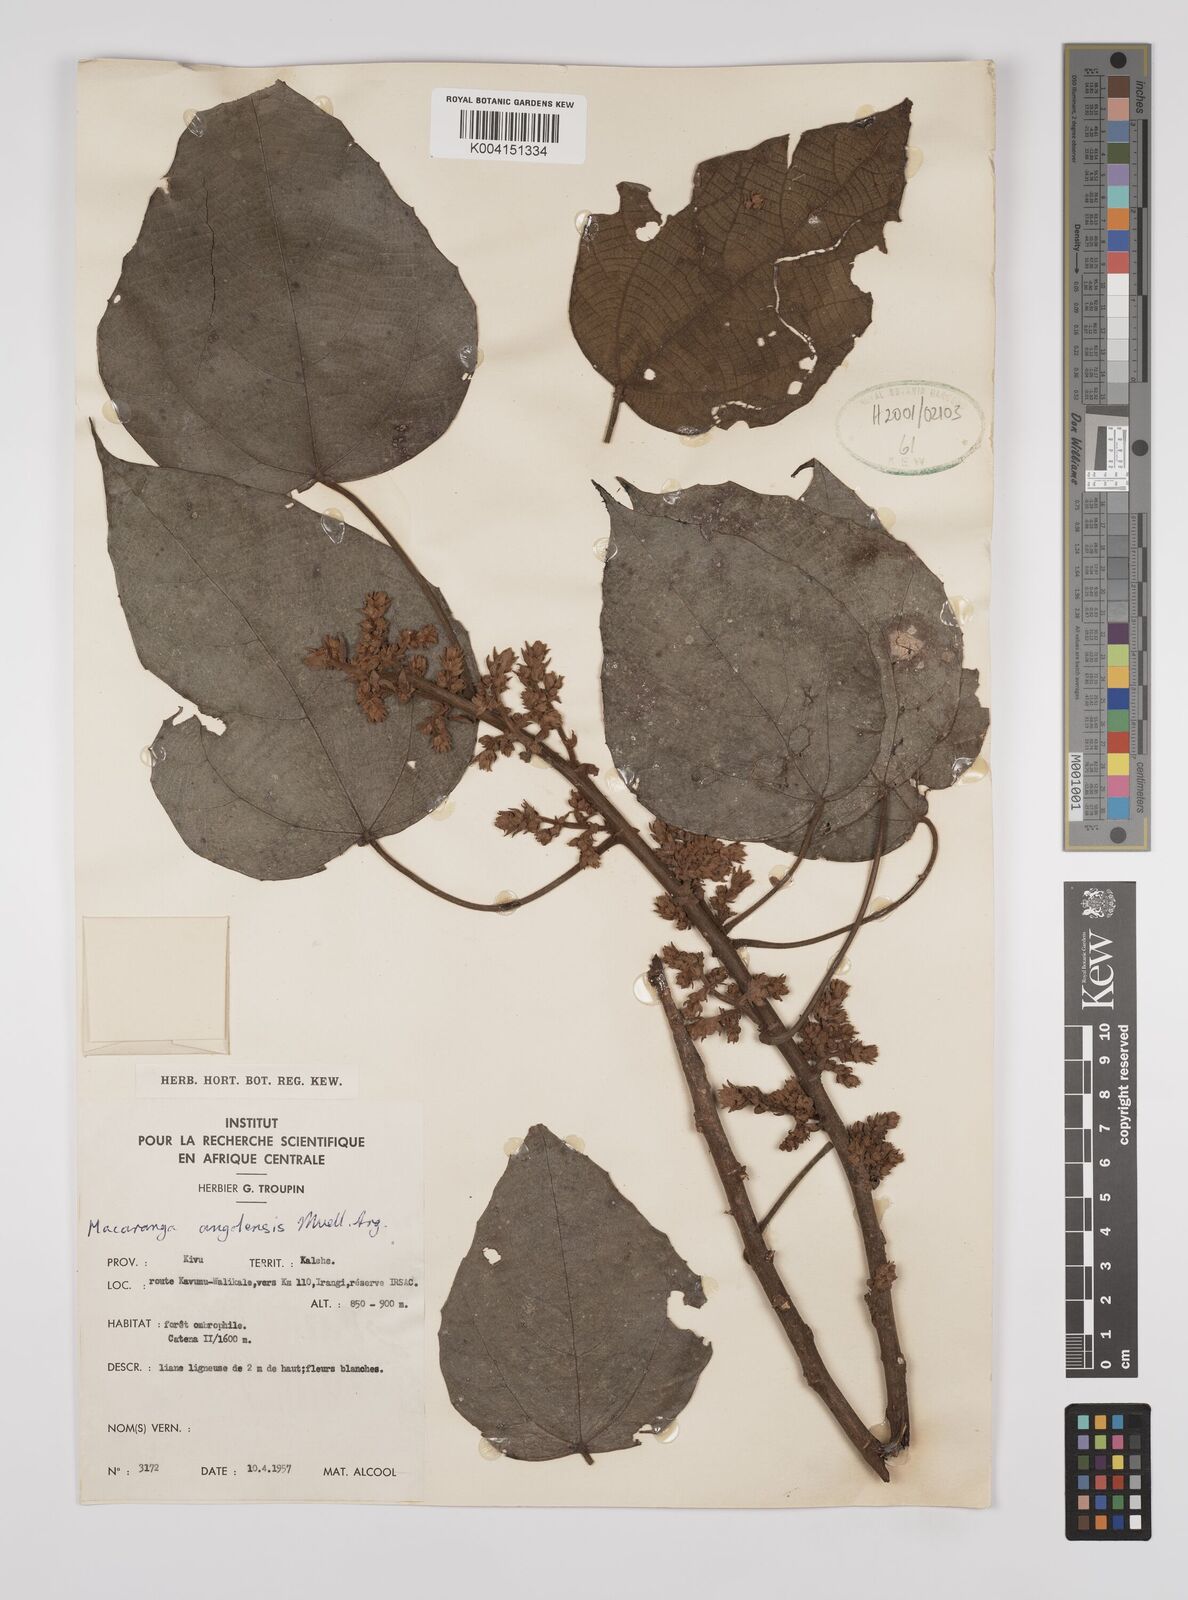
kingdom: Plantae
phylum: Tracheophyta
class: Magnoliopsida
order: Malpighiales
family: Euphorbiaceae
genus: Macaranga
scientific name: Macaranga angolensis
